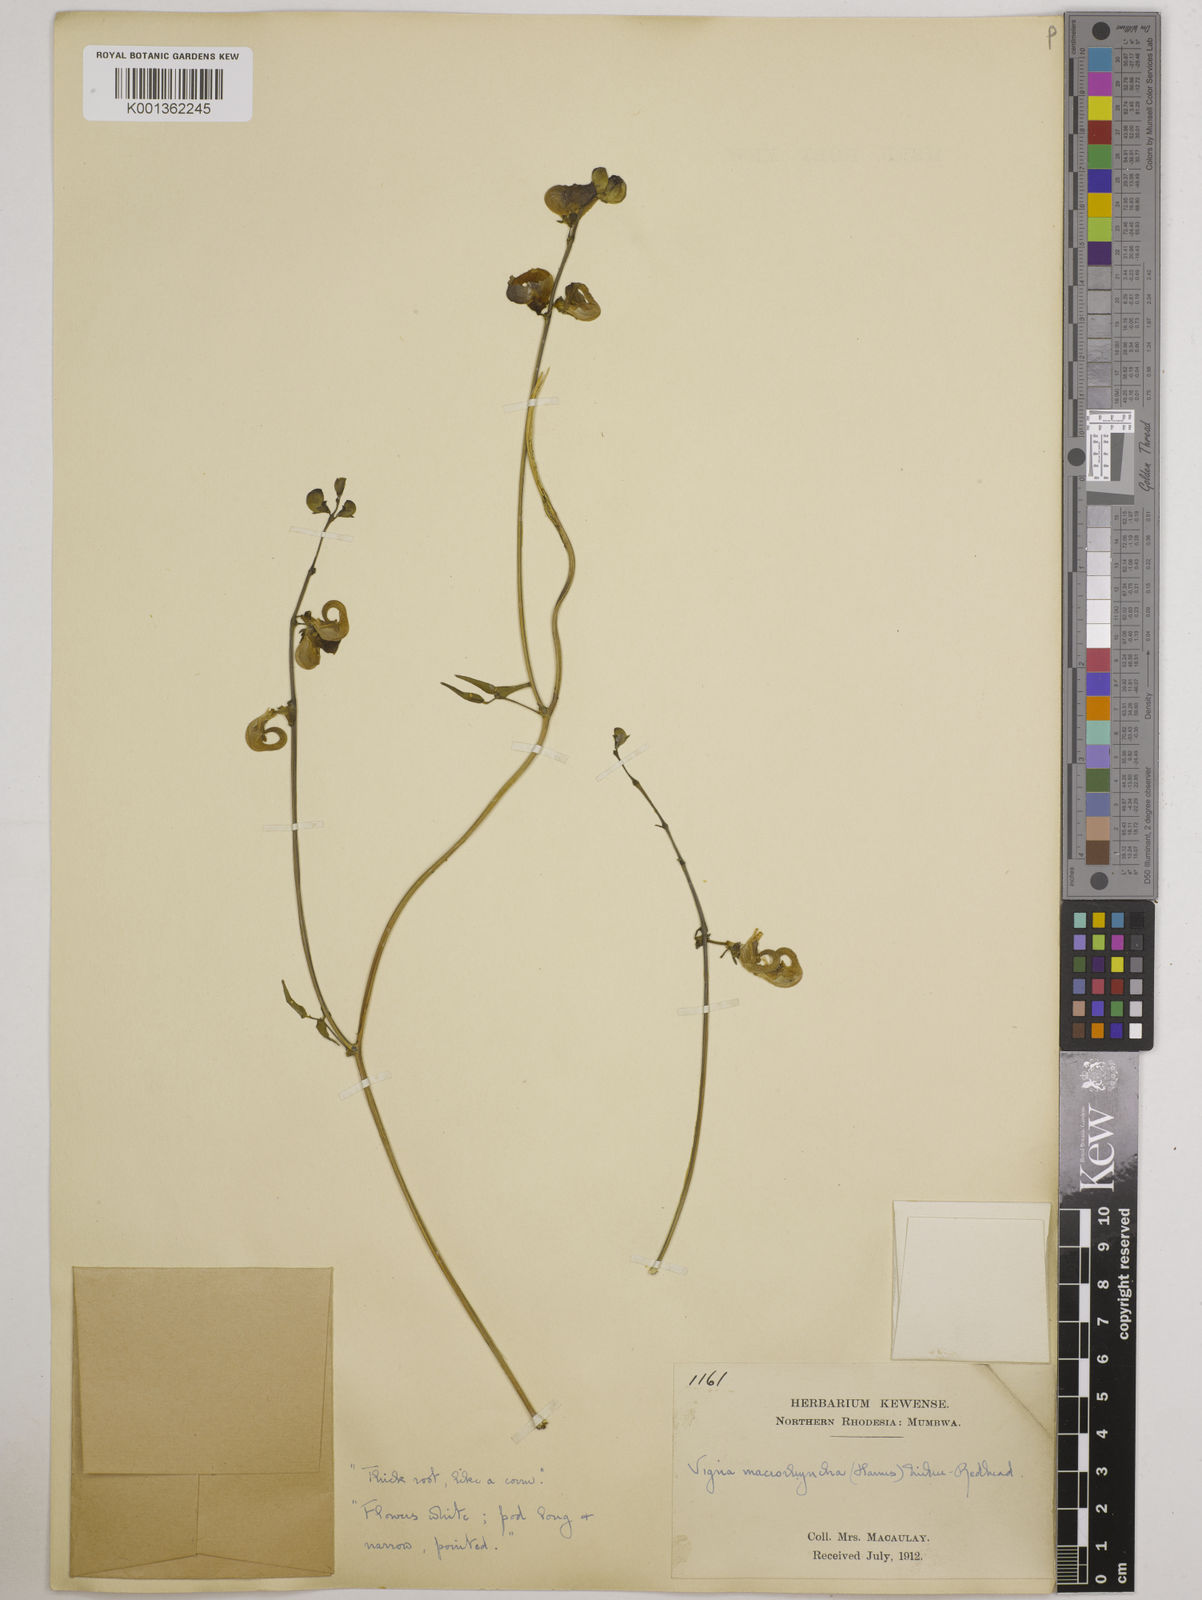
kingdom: Plantae
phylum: Tracheophyta
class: Magnoliopsida
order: Fabales
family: Fabaceae
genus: Wajira
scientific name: Wajira grahamiana
